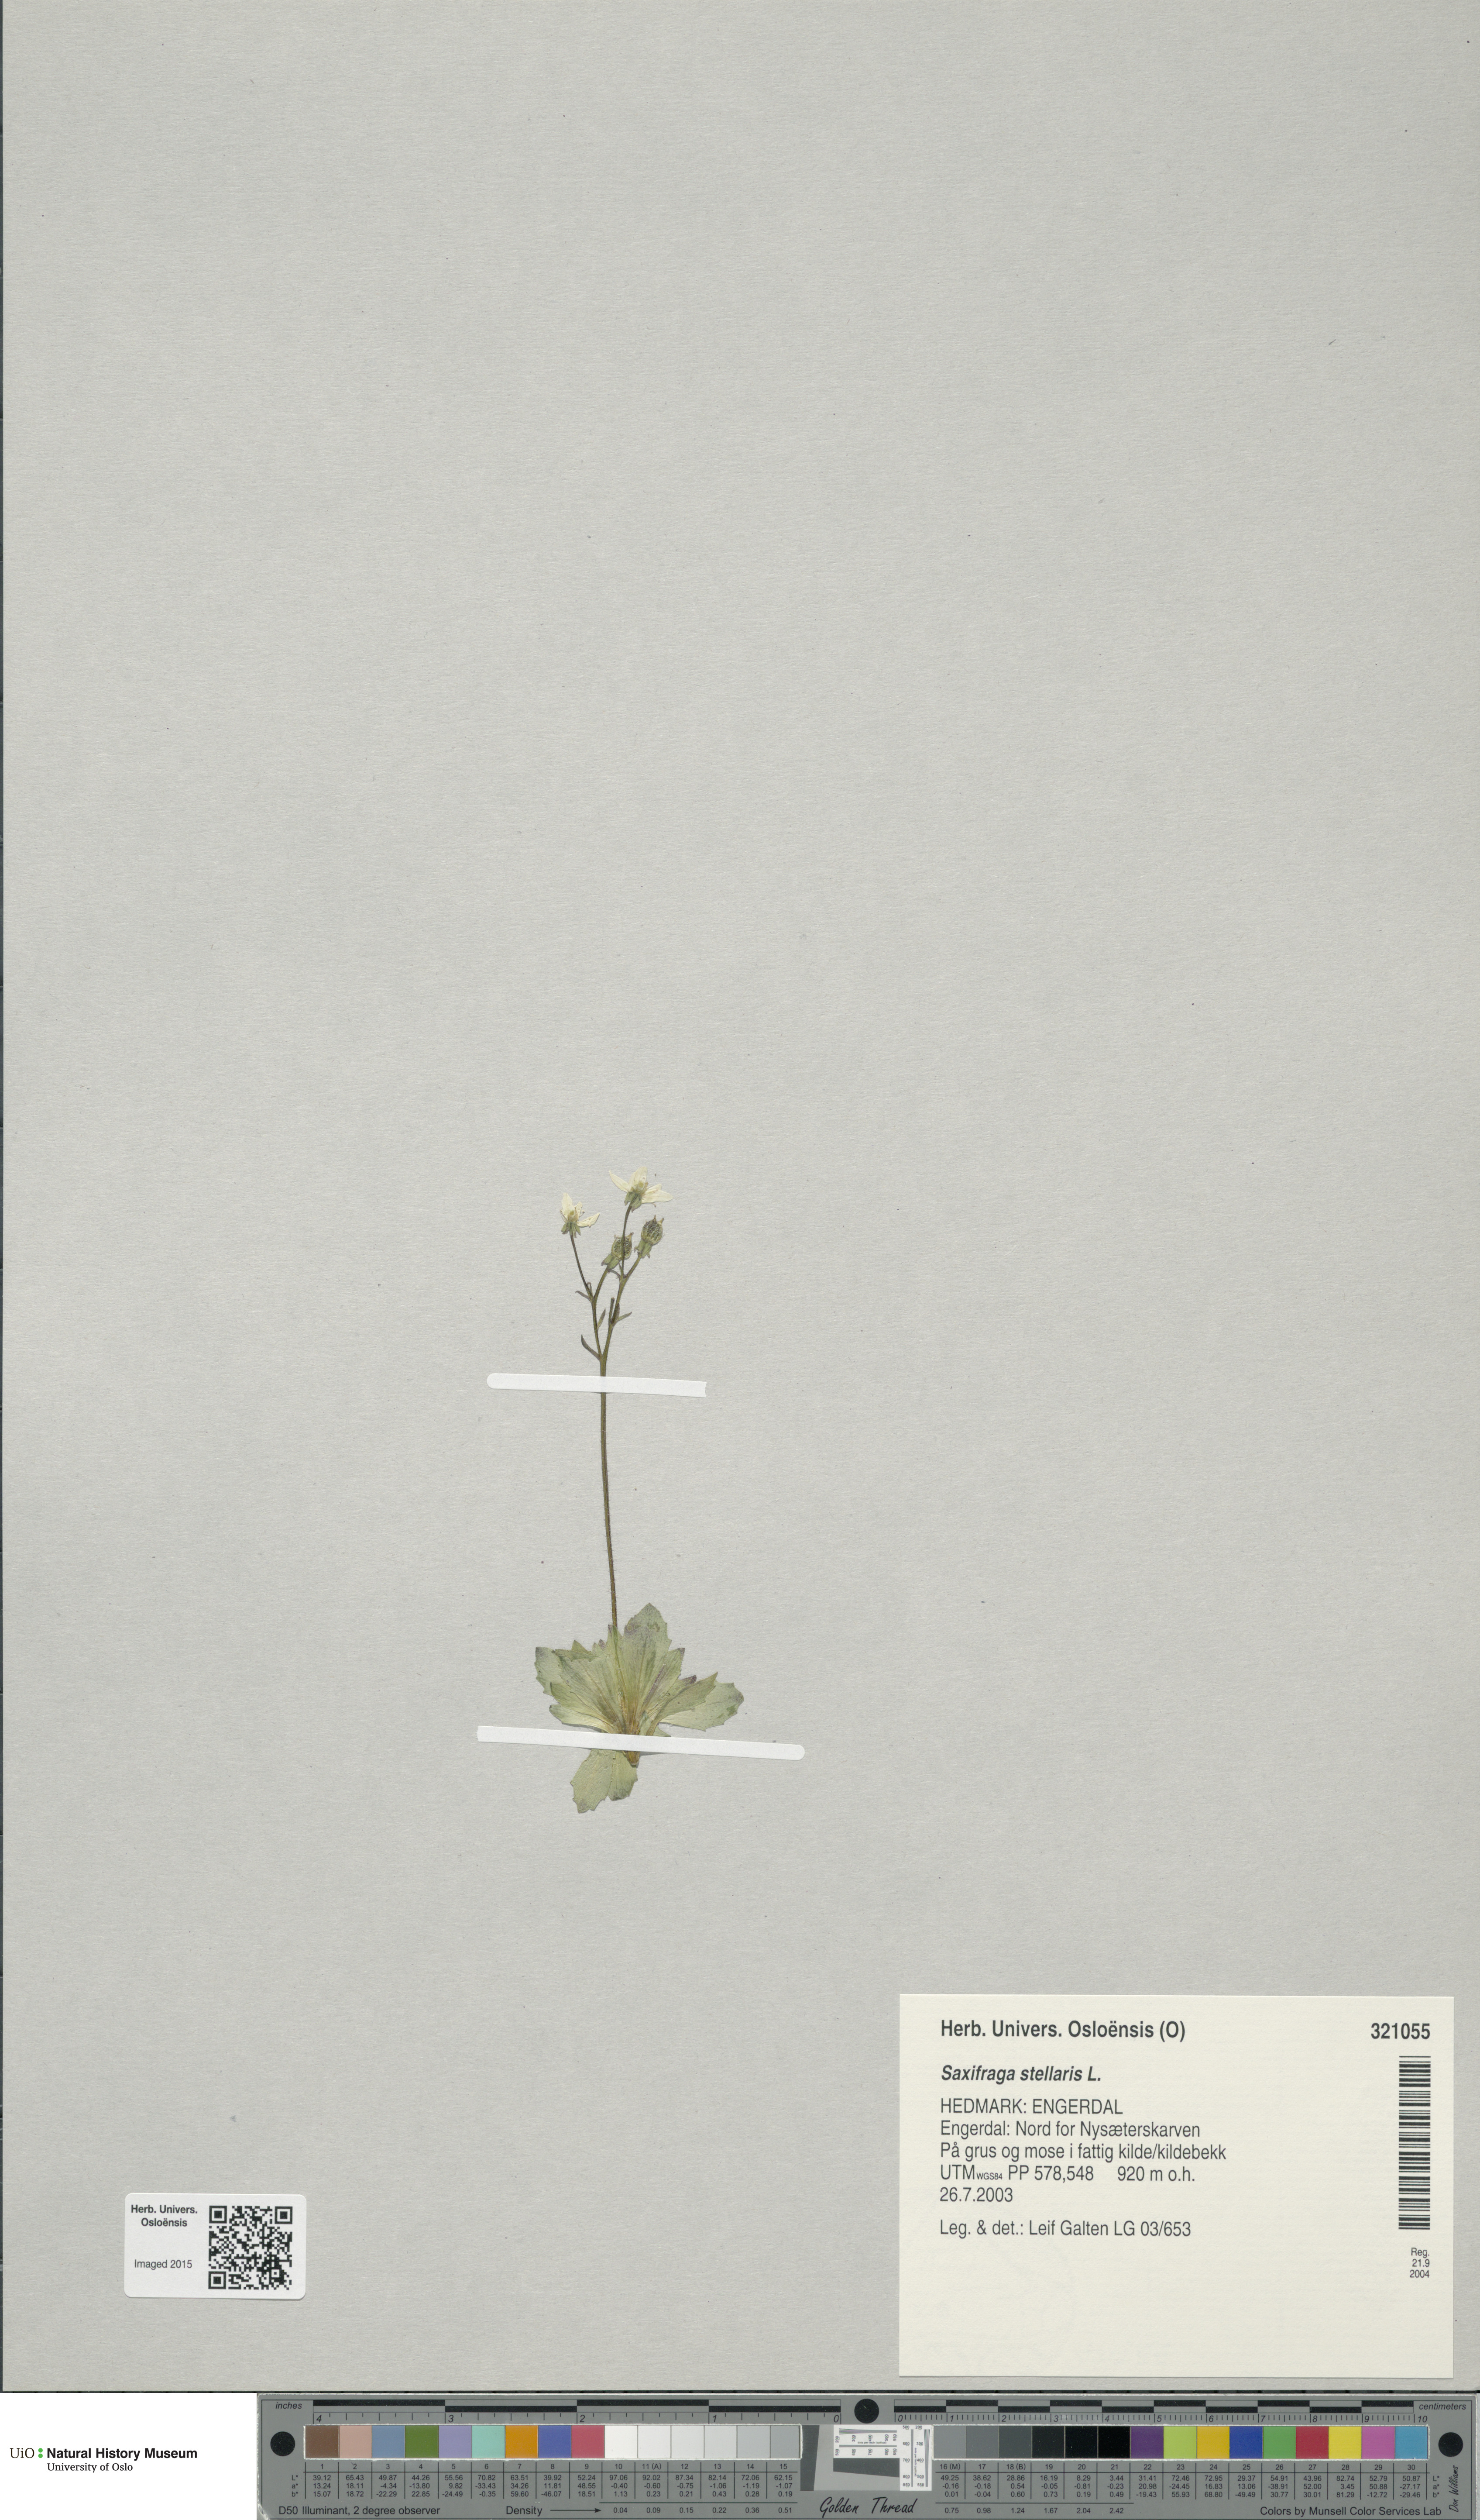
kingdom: Plantae
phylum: Tracheophyta
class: Magnoliopsida
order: Saxifragales
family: Saxifragaceae
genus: Micranthes
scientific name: Micranthes stellaris
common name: Starry saxifrage
